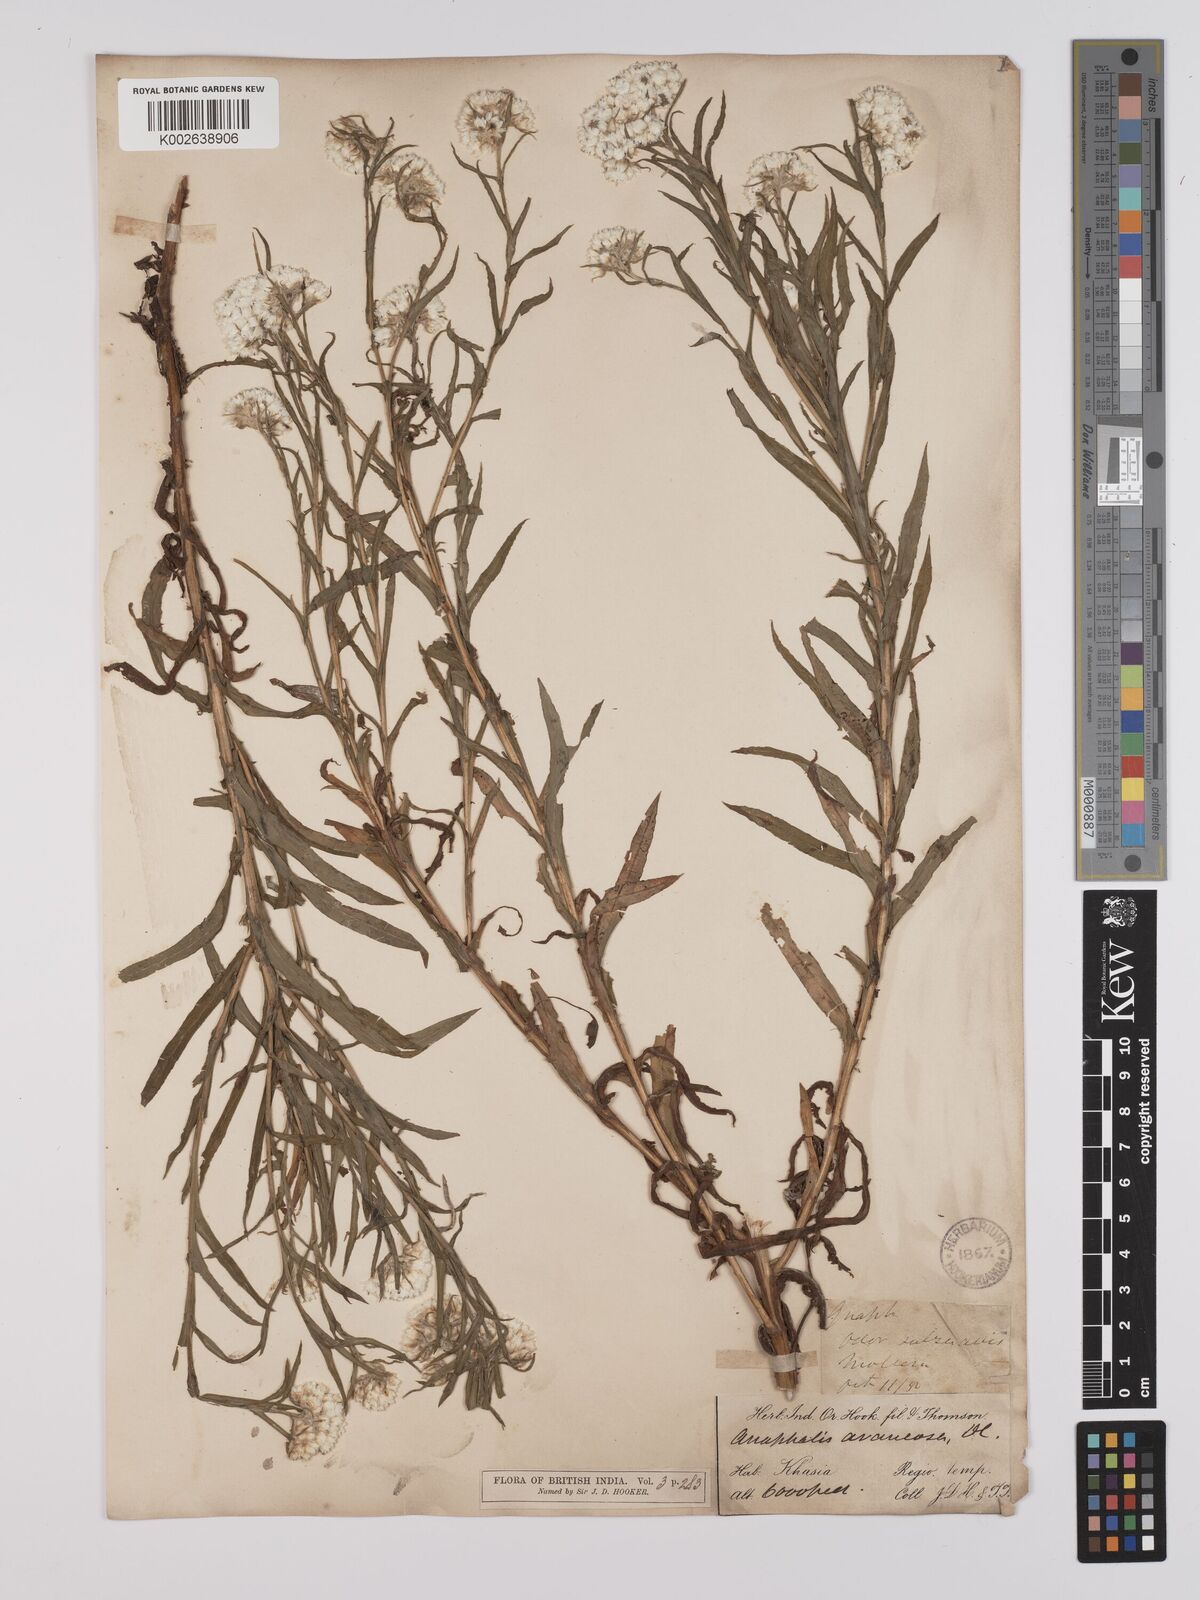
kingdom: Plantae
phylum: Tracheophyta
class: Magnoliopsida
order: Asterales
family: Asteraceae
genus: Anaphalis
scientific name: Anaphalis busua
